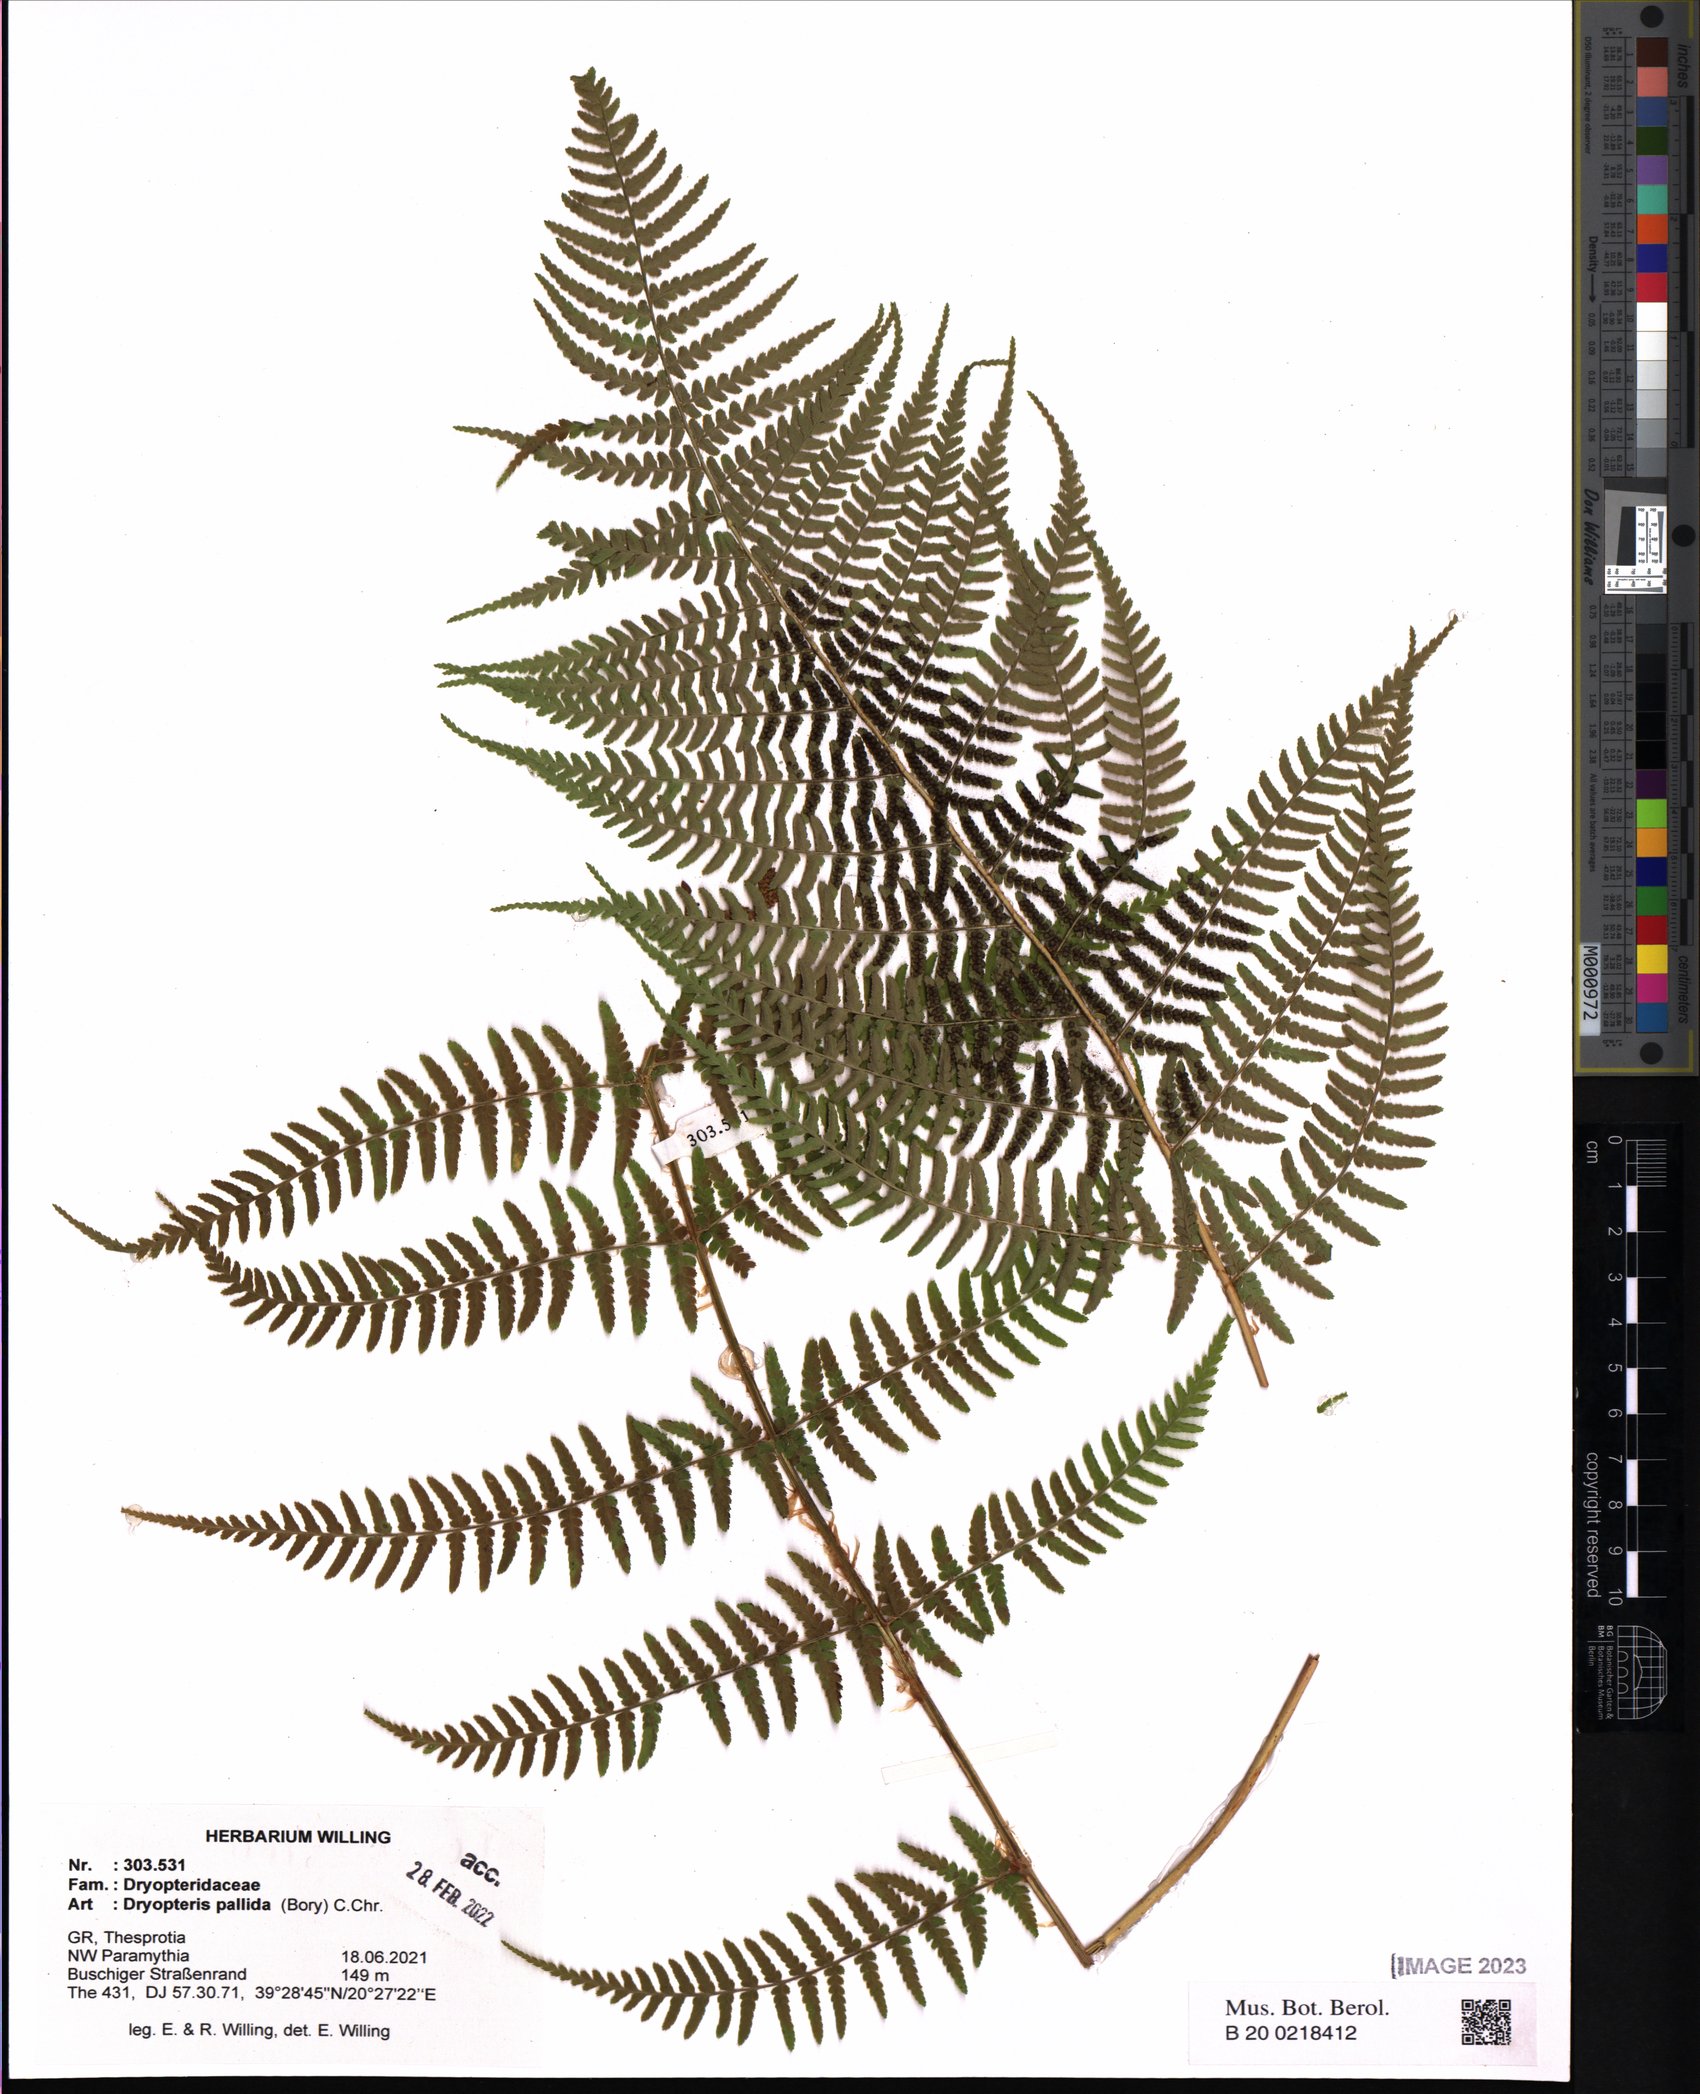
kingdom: Plantae
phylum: Tracheophyta
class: Polypodiopsida
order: Polypodiales
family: Dryopteridaceae
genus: Dryopteris
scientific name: Dryopteris pallida
